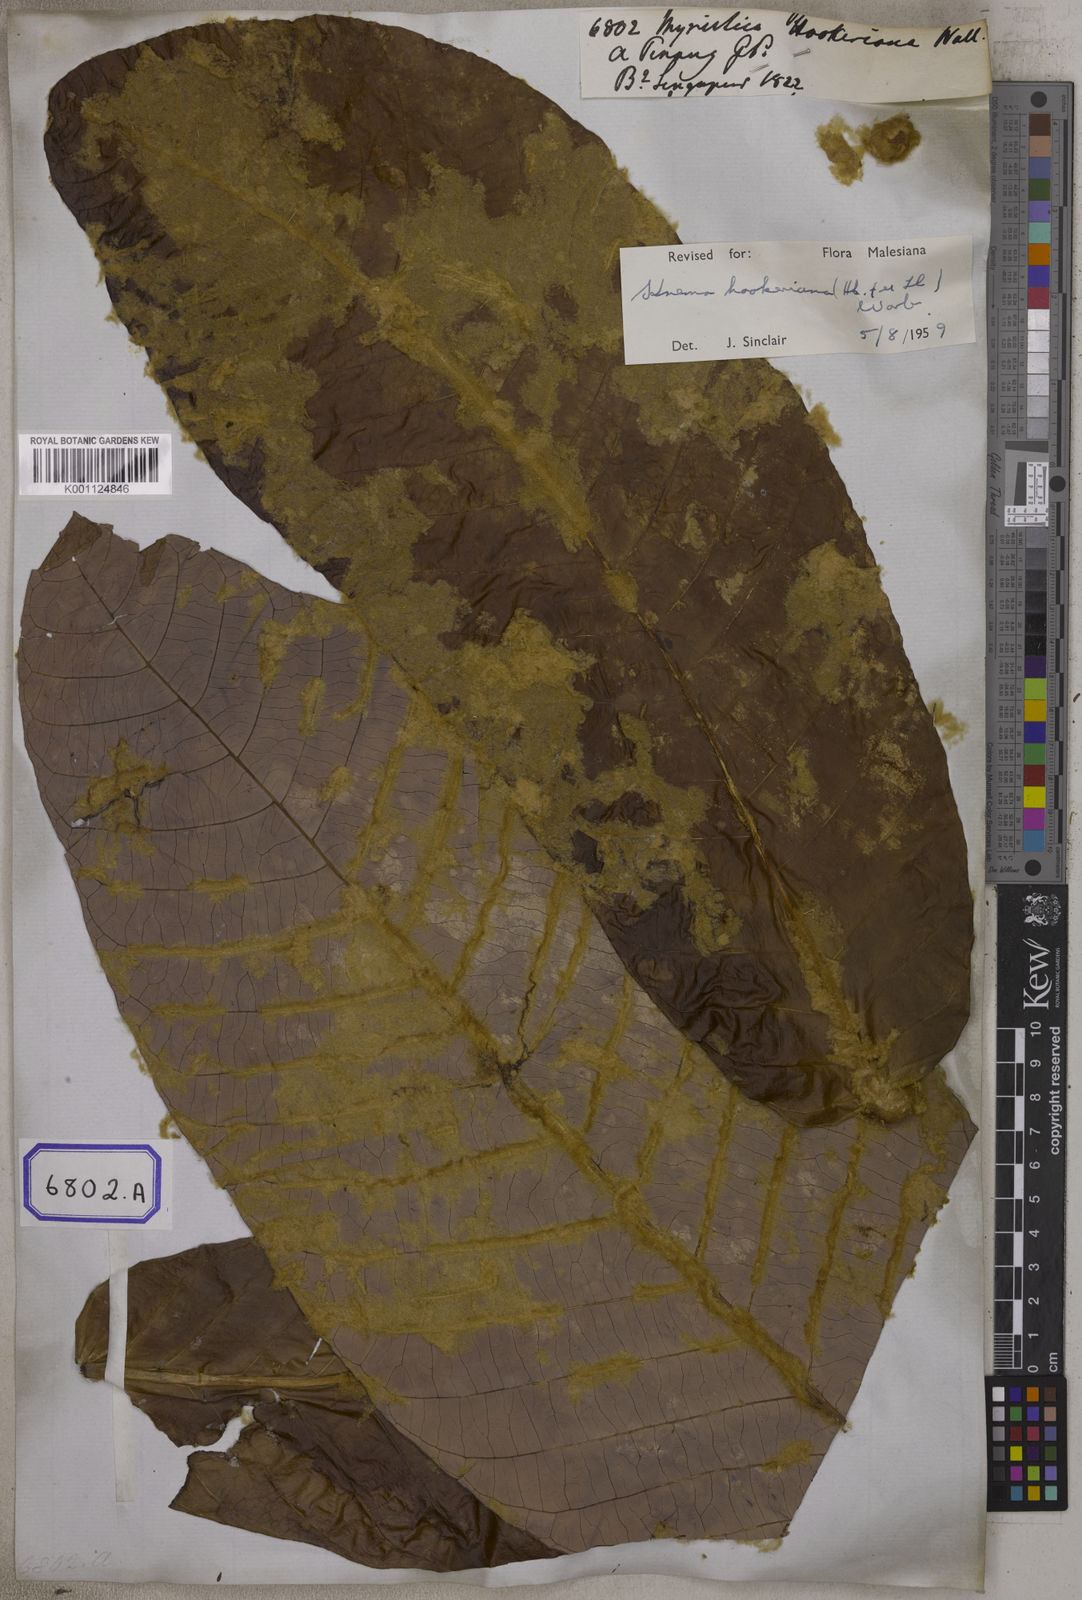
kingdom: Plantae
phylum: Tracheophyta
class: Magnoliopsida
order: Magnoliales
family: Myristicaceae
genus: Myristica
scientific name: Myristica
